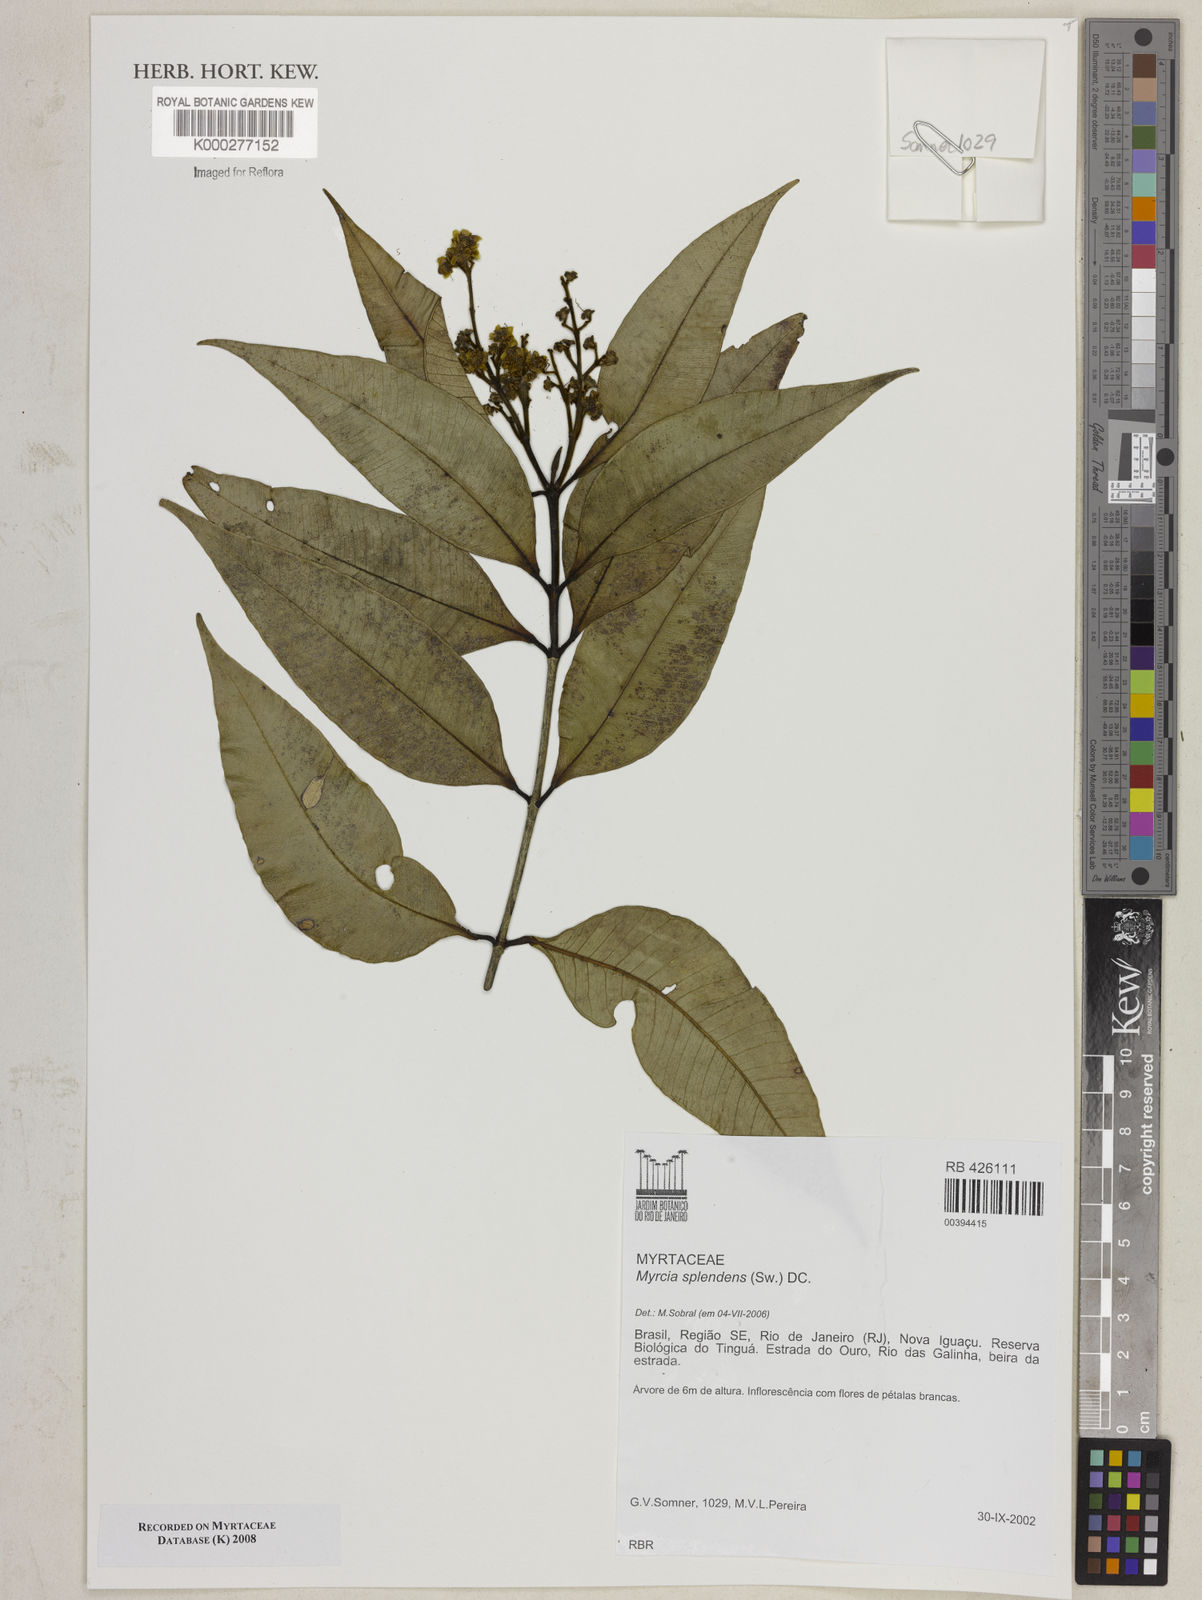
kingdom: Plantae
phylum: Tracheophyta
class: Magnoliopsida
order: Myrtales
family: Myrtaceae
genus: Myrcia
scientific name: Myrcia splendens
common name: Surinam cherry
